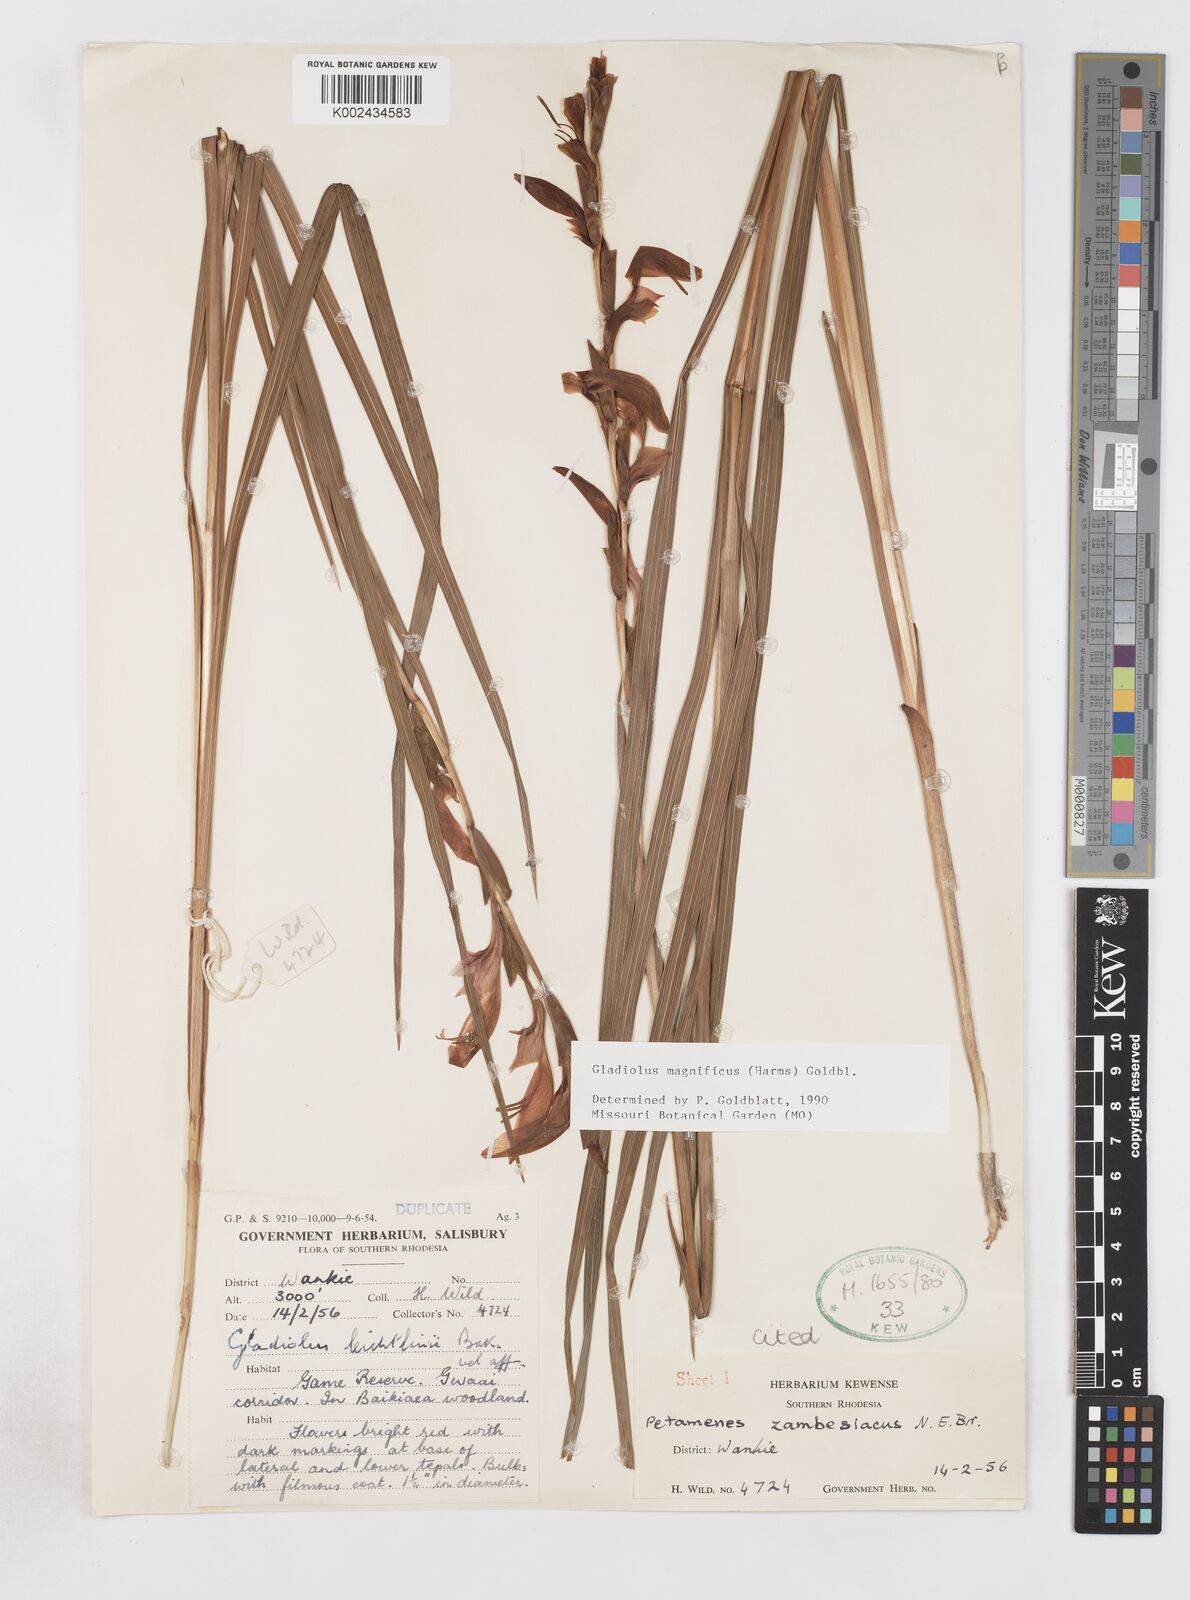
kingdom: Plantae
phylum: Tracheophyta
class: Liliopsida
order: Asparagales
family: Iridaceae
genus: Gladiolus
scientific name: Gladiolus magnificus
